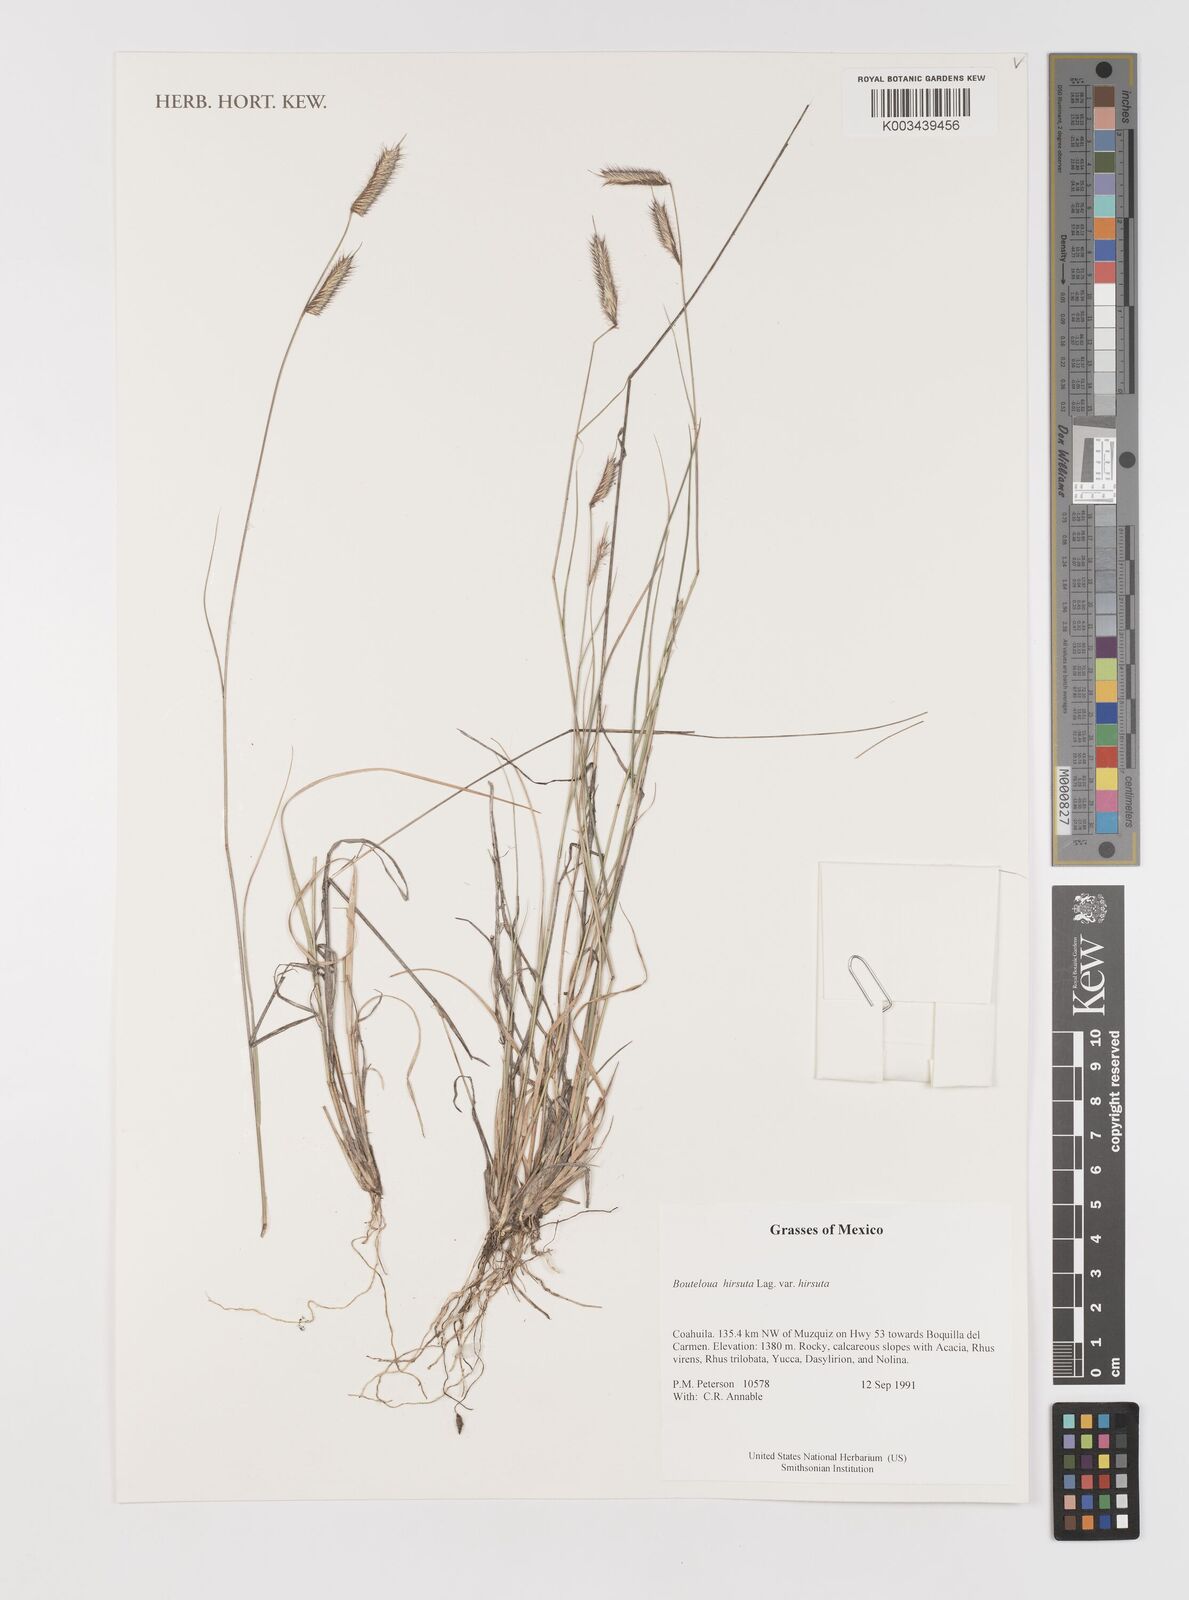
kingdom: Plantae
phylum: Tracheophyta
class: Liliopsida
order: Poales
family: Poaceae
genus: Bouteloua
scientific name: Bouteloua hirsuta
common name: Hairy grama
